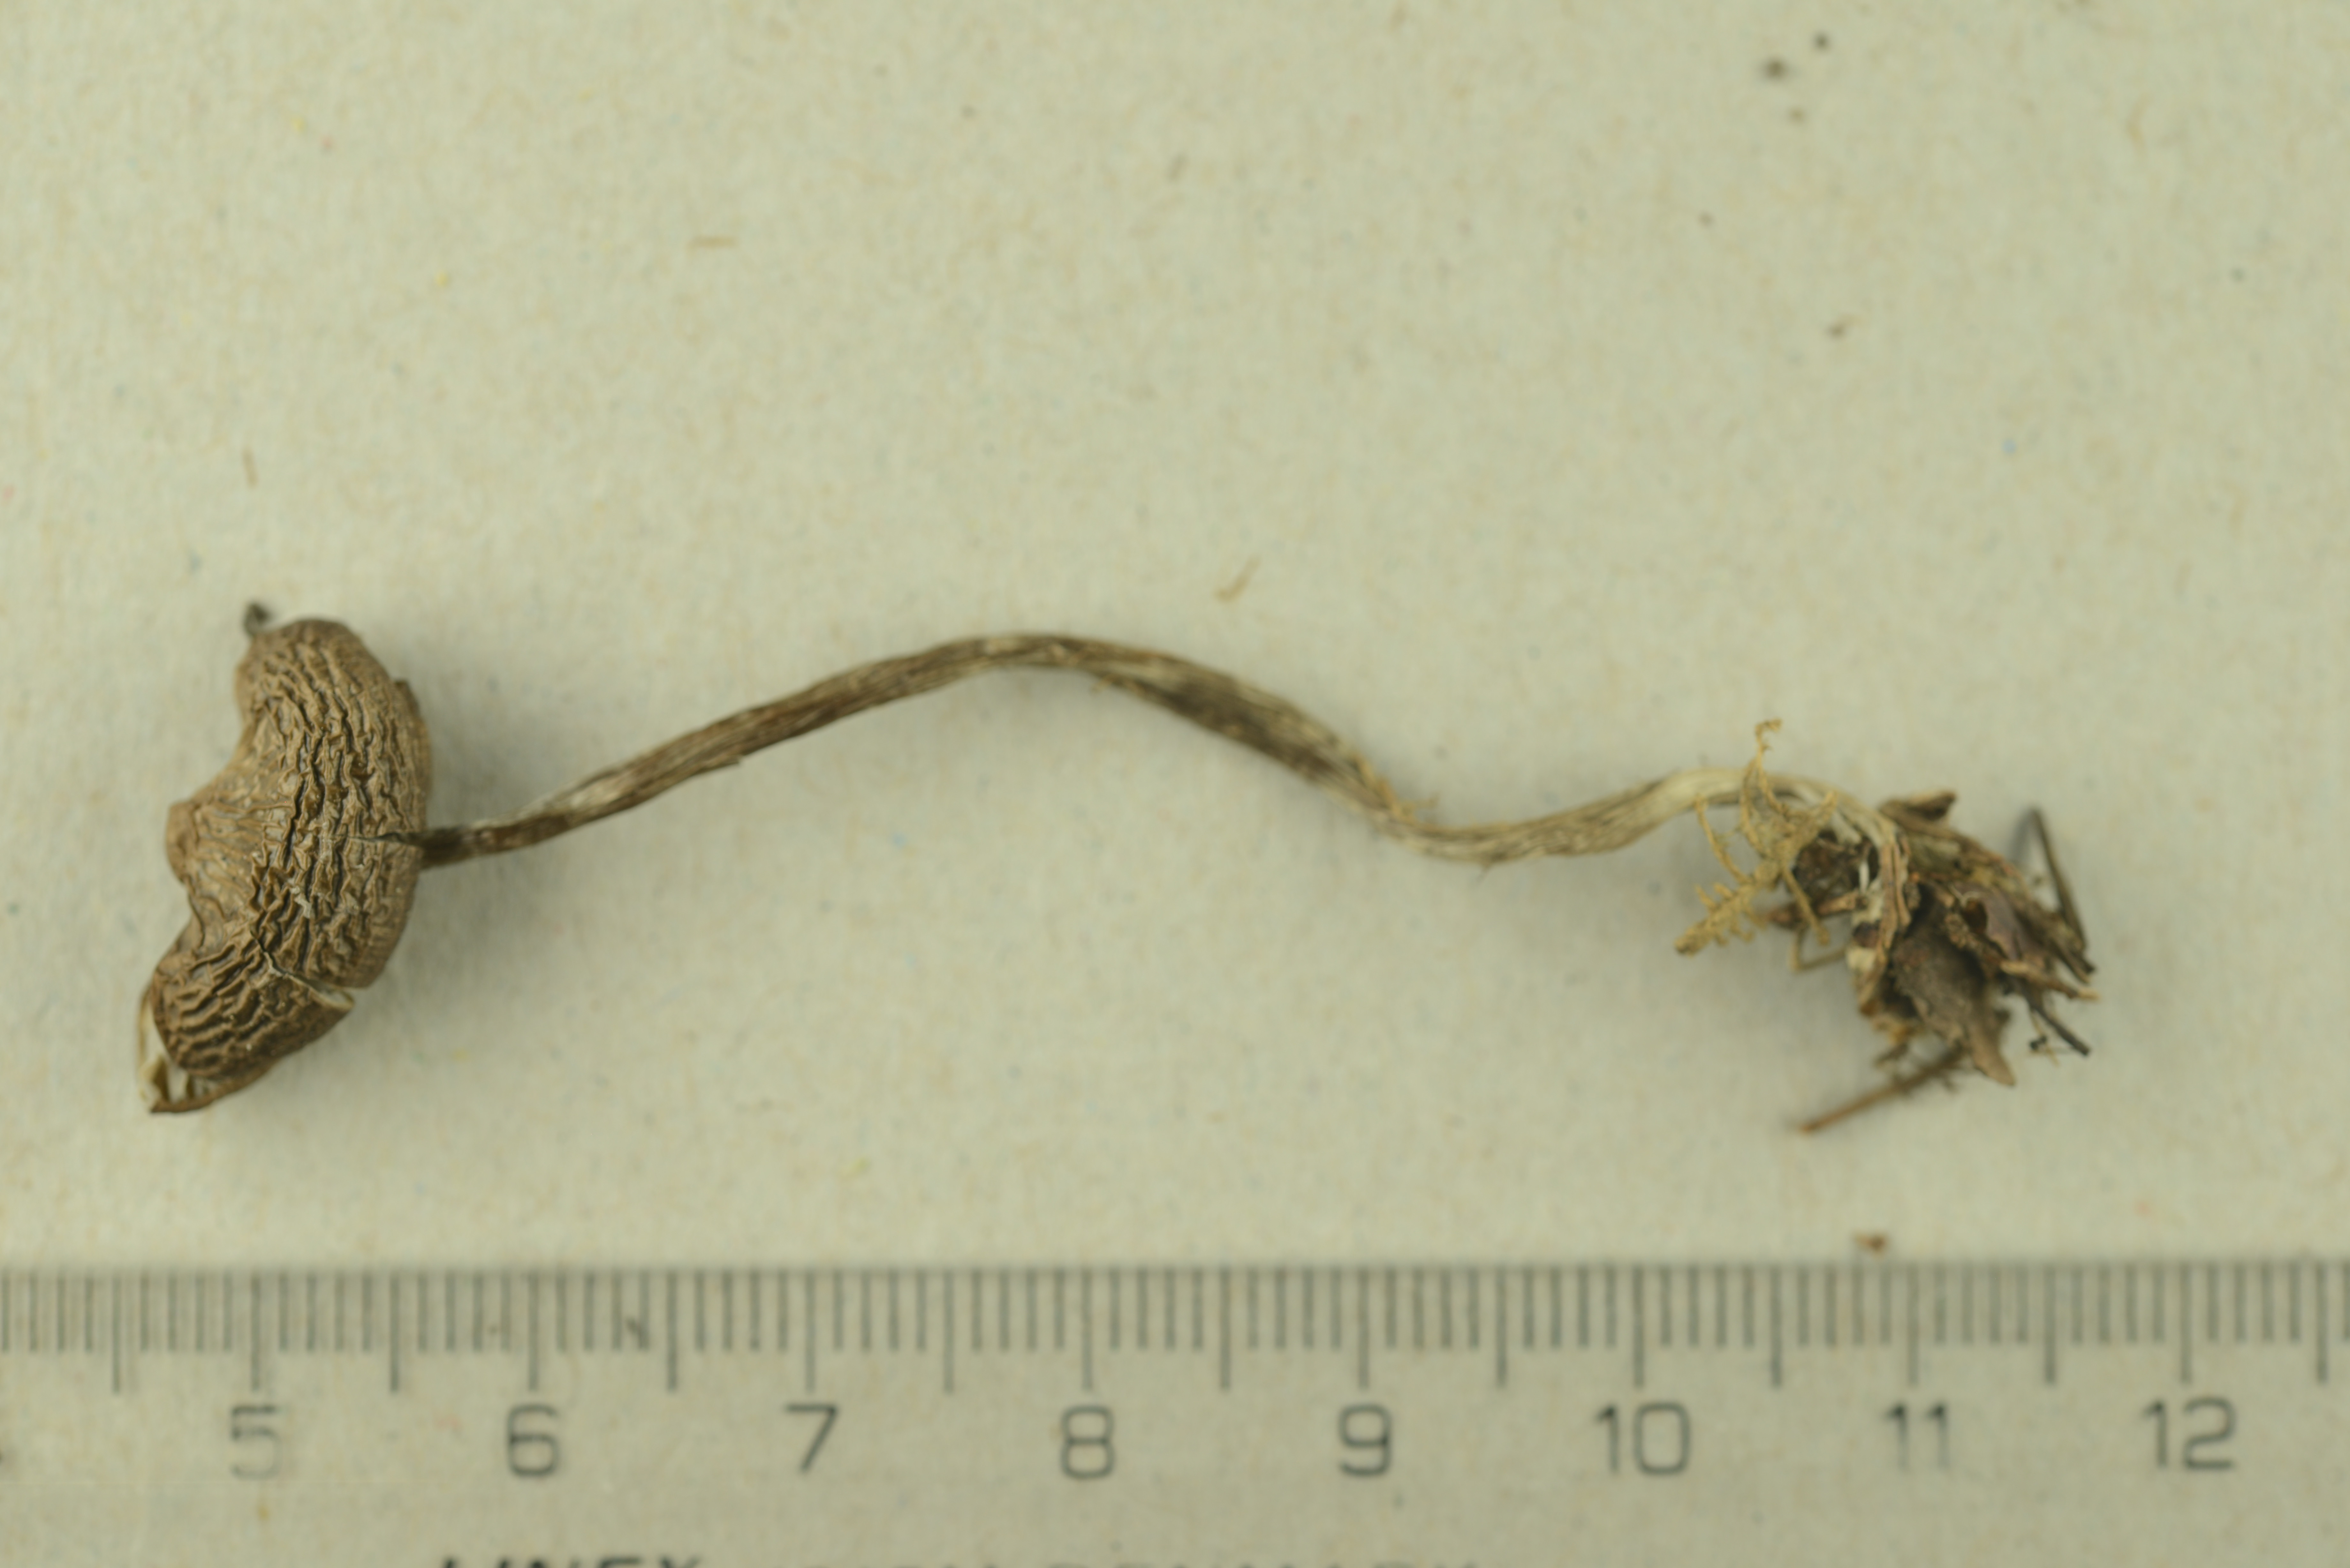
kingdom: Fungi
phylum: Basidiomycota
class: Agaricomycetes
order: Agaricales
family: Lyophyllaceae
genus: Myochromella
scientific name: Myochromella boudieri
